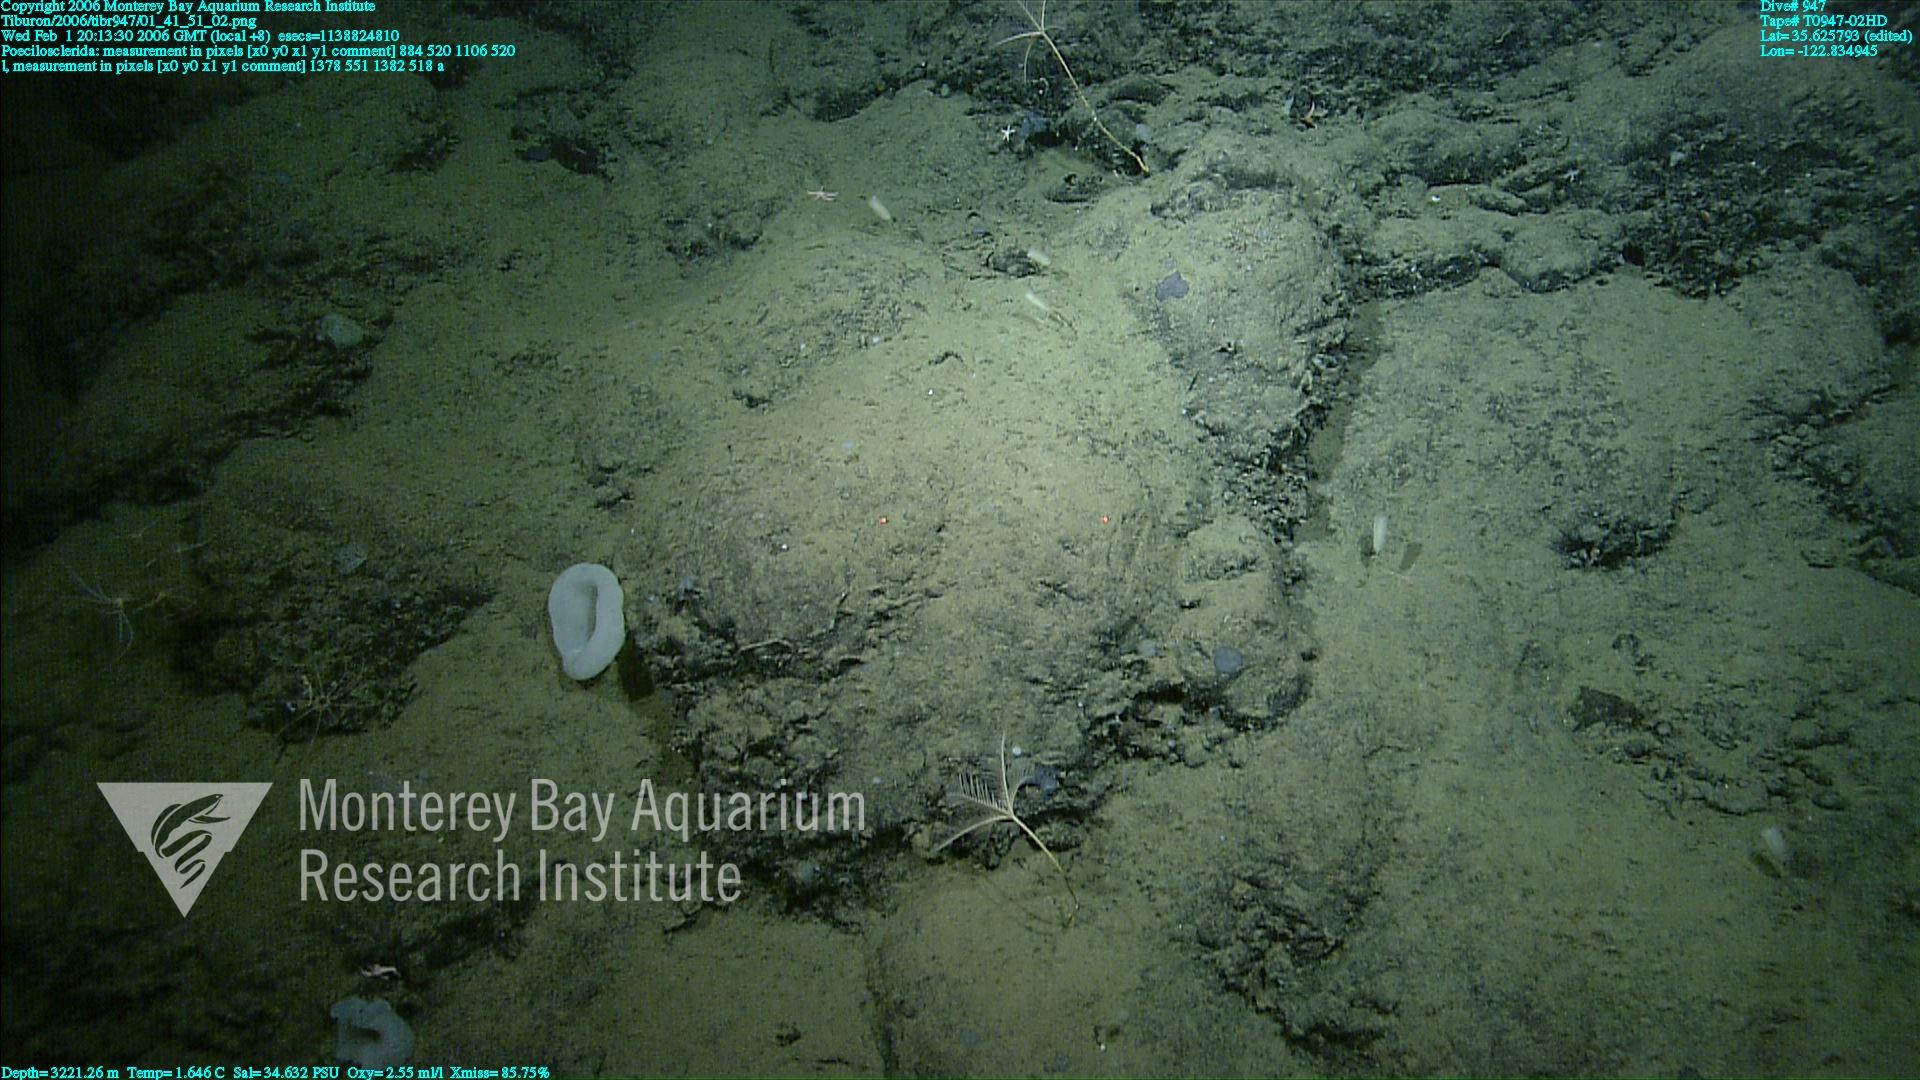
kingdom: Animalia
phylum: Porifera
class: Demospongiae
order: Poecilosclerida
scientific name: Poecilosclerida
